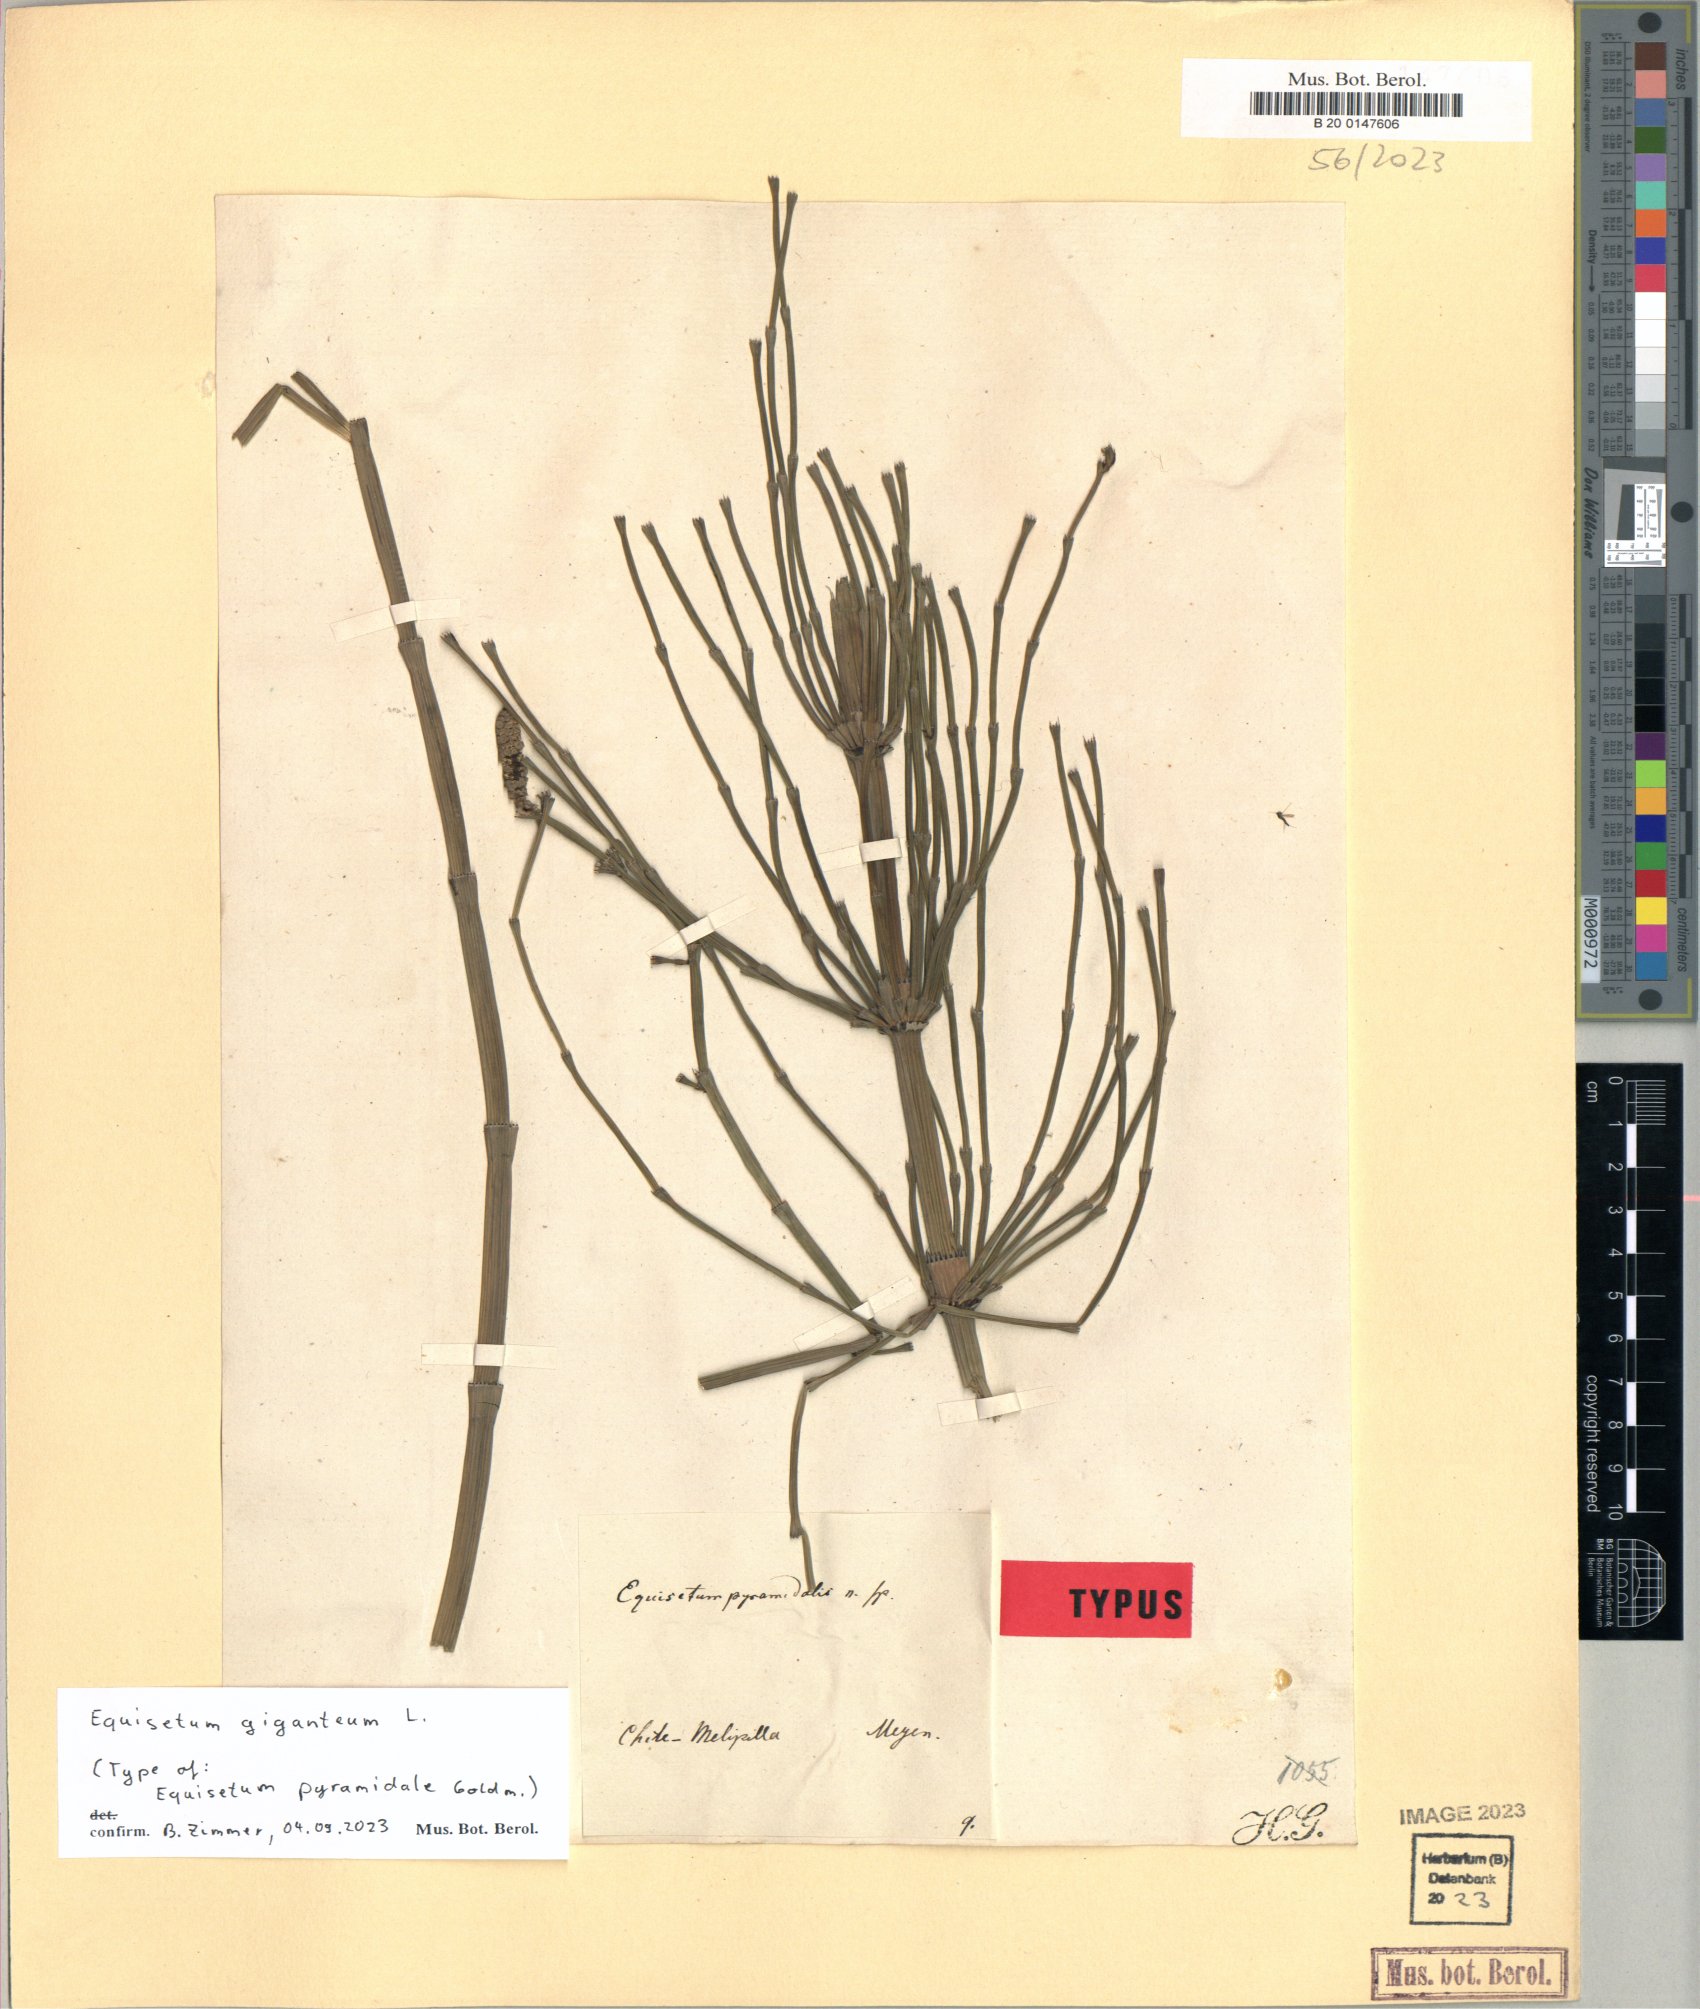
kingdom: Plantae
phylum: Tracheophyta
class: Polypodiopsida
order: Equisetales
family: Equisetaceae
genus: Equisetum
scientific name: Equisetum giganteum
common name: Giant horsetail
